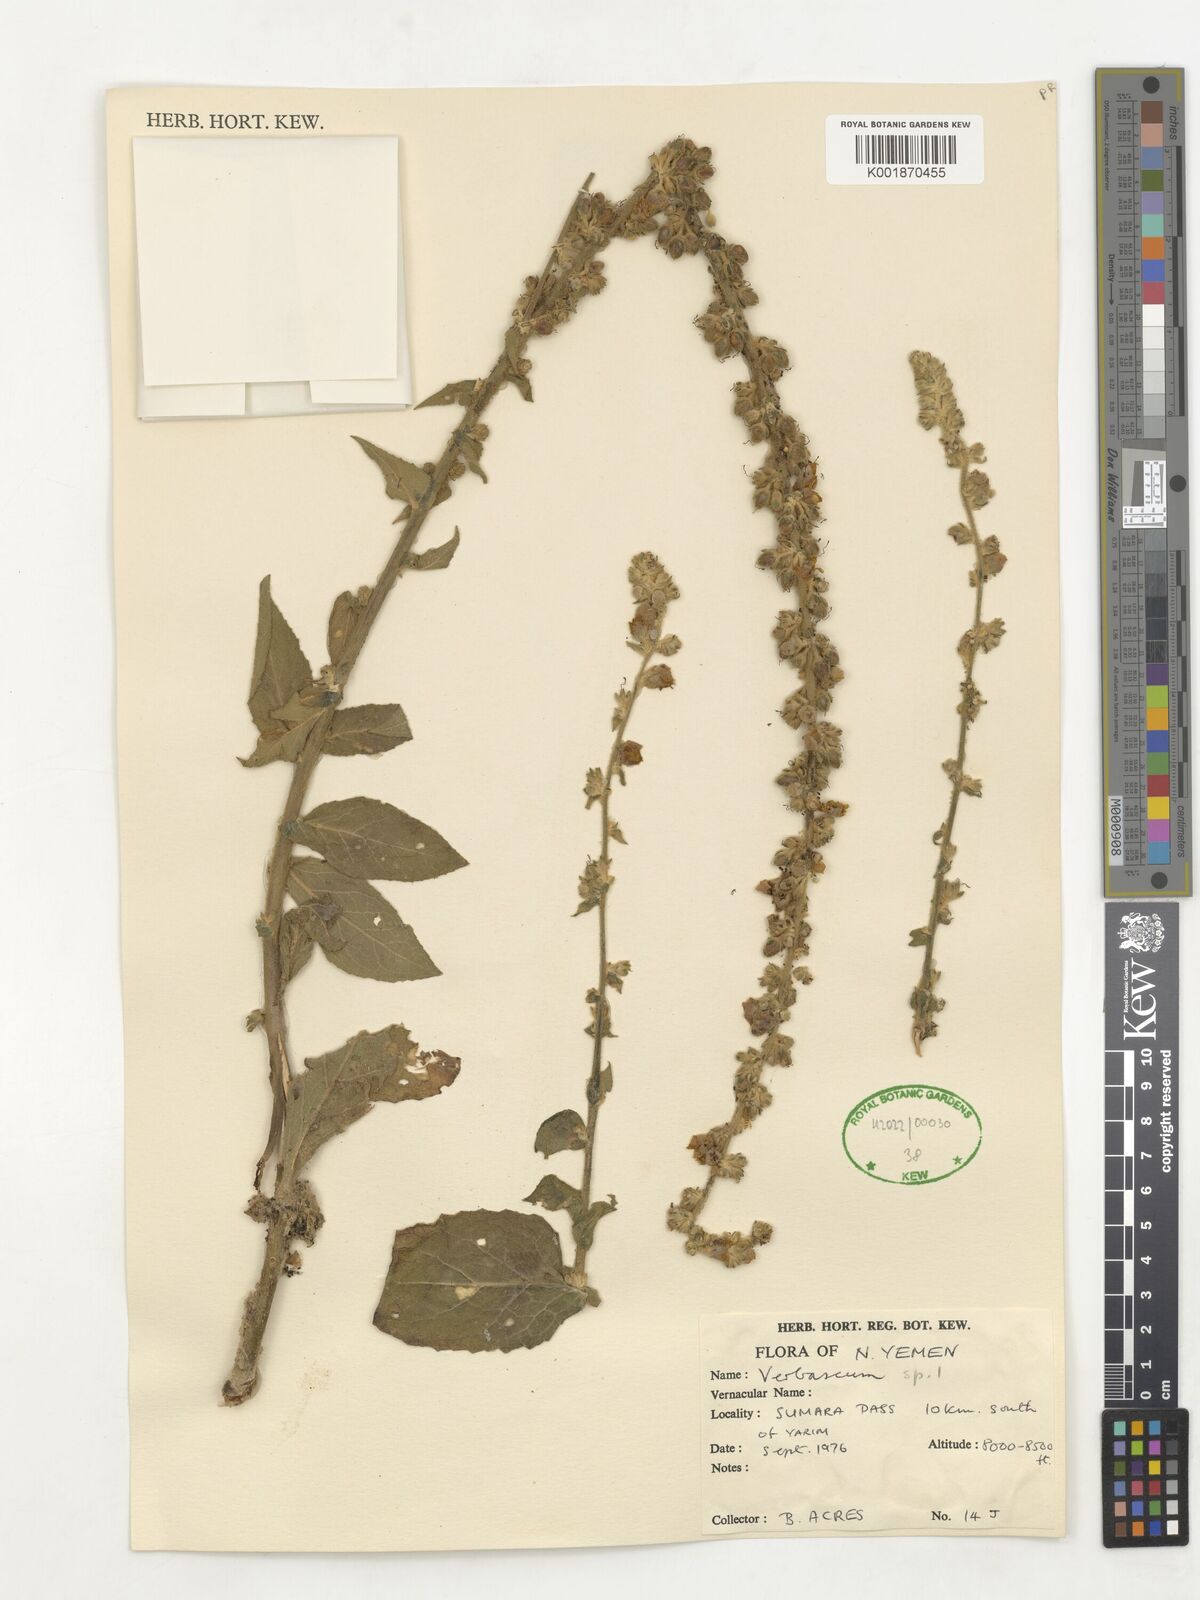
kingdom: Plantae
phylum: Tracheophyta
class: Magnoliopsida
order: Lamiales
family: Scrophulariaceae
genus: Verbascum
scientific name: Verbascum
